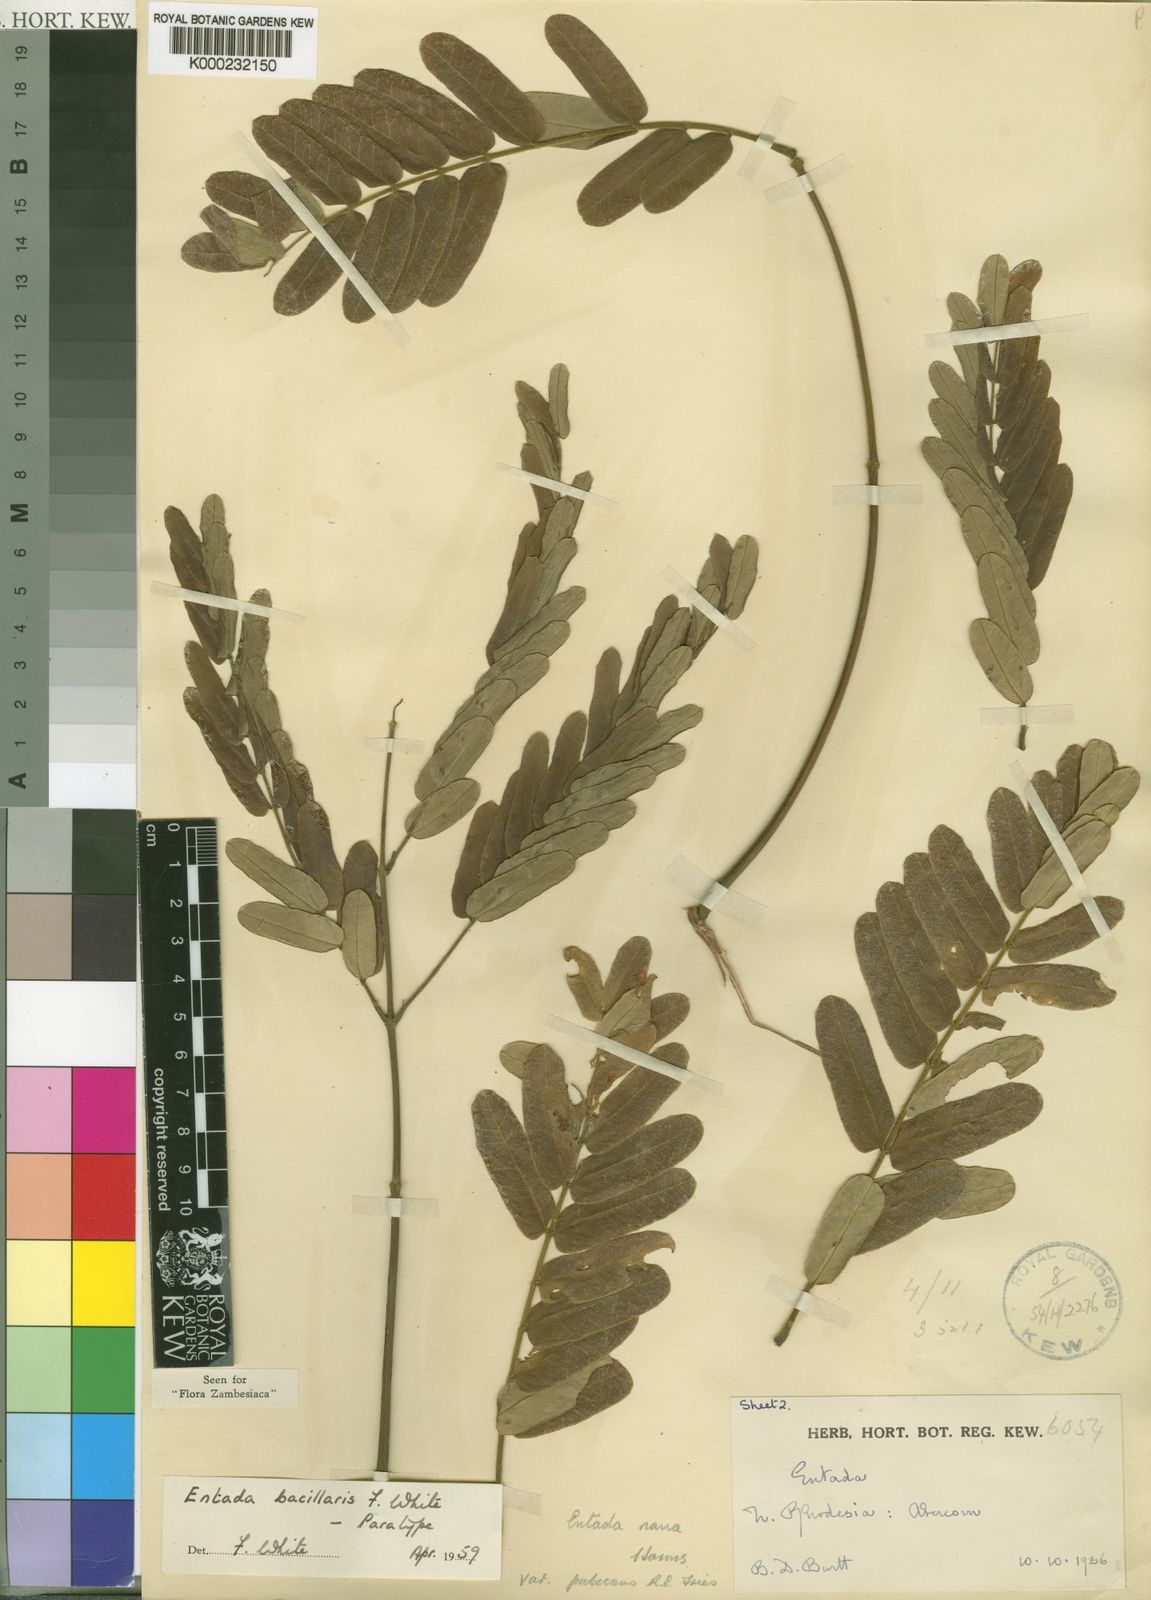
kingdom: Plantae
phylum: Tracheophyta
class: Magnoliopsida
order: Fabales
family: Fabaceae
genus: Entada
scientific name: Entada bacillaris
